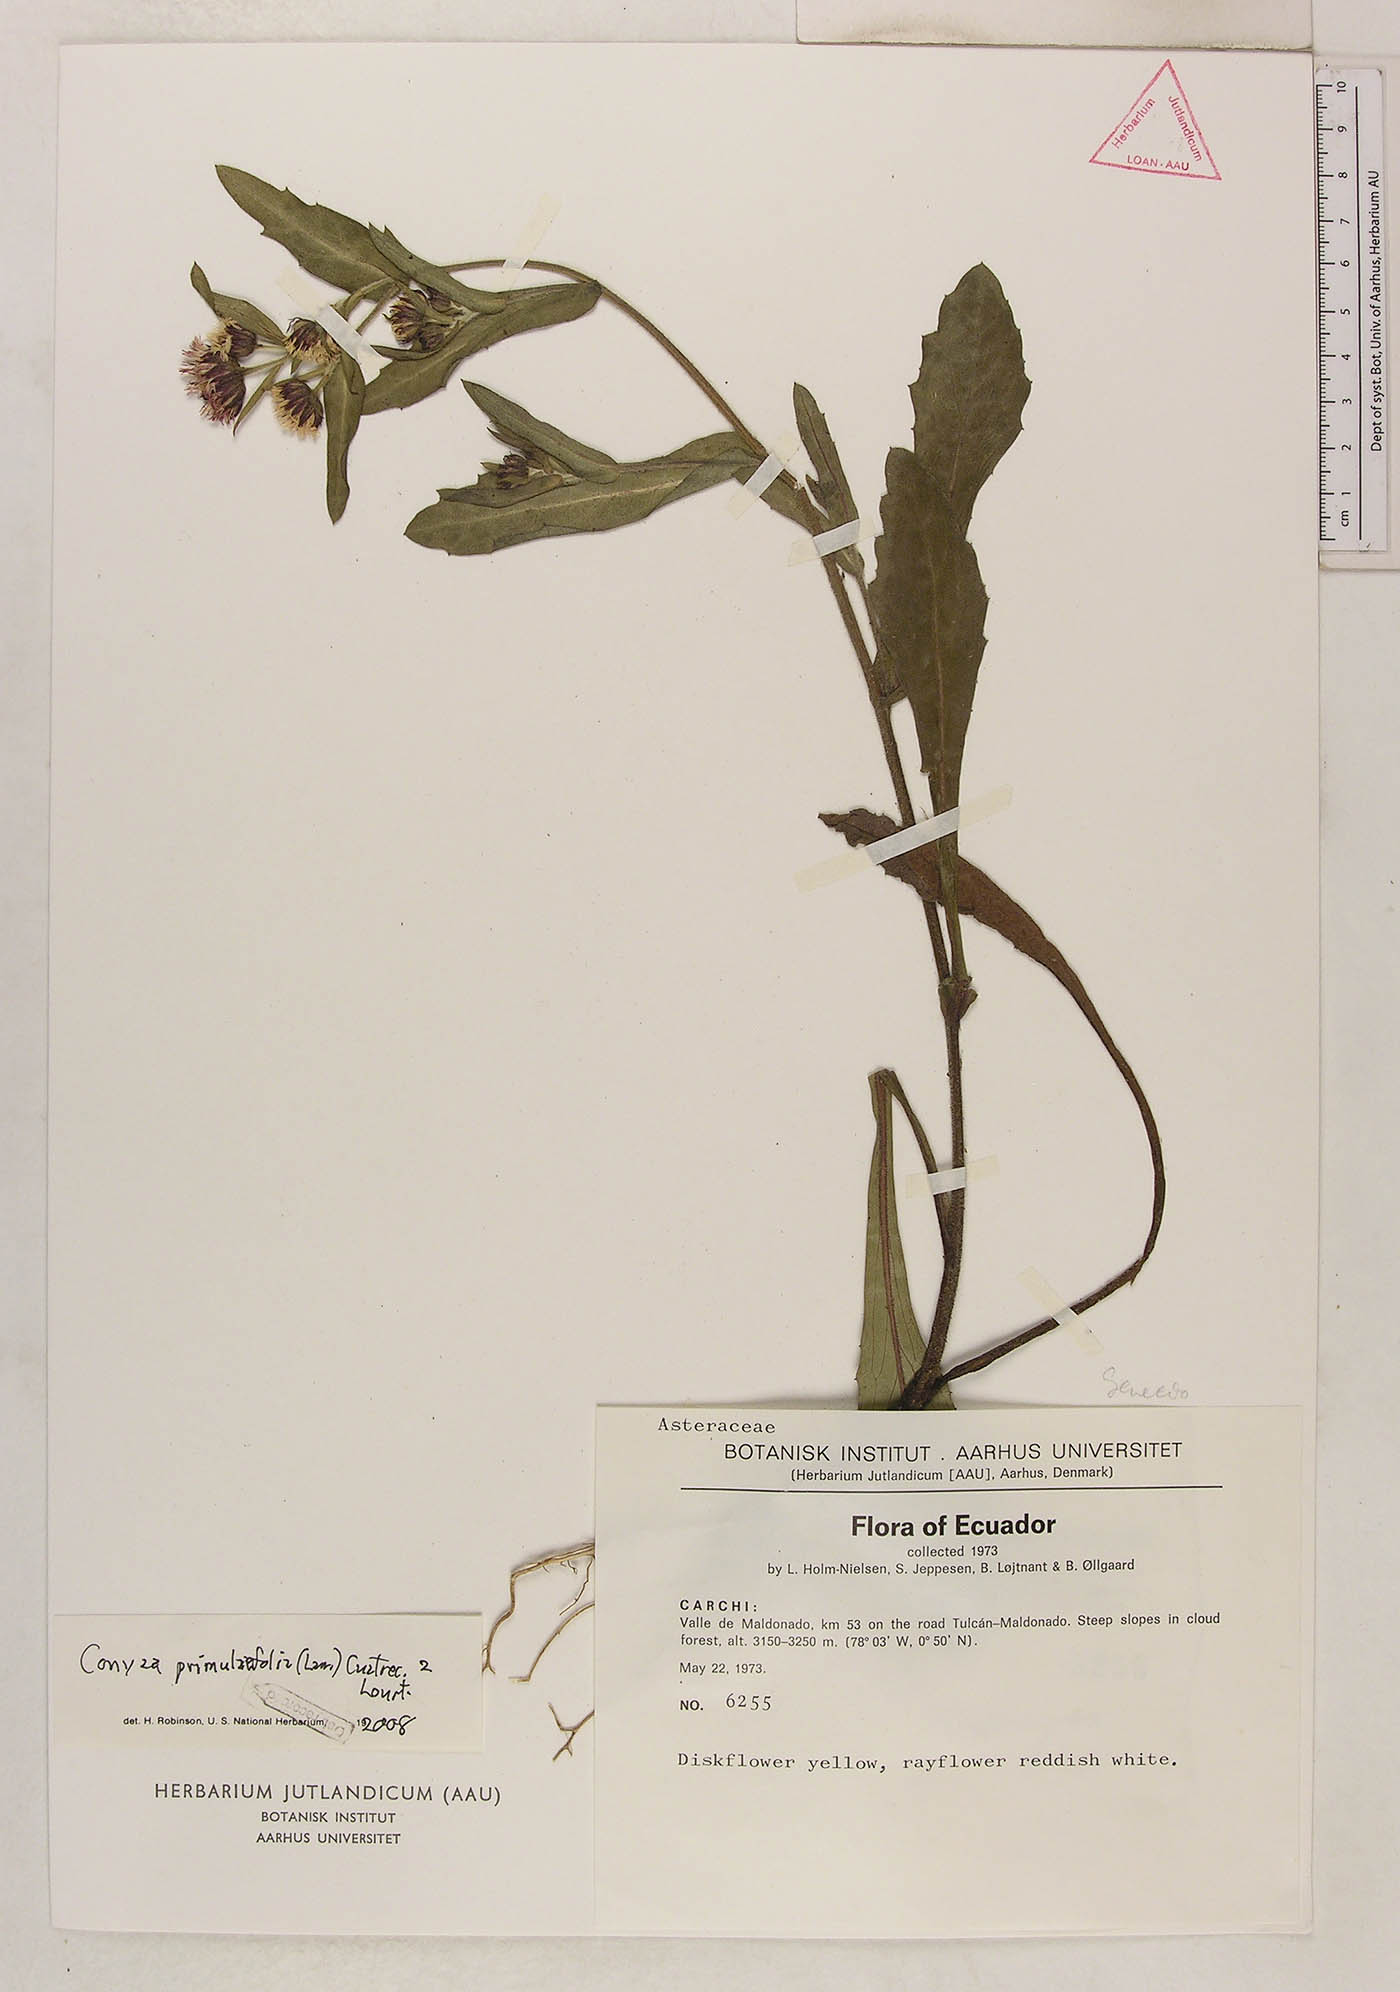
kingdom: Plantae
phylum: Tracheophyta
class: Magnoliopsida
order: Asterales
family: Asteraceae
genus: Erigeron
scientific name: Erigeron primulifolius
